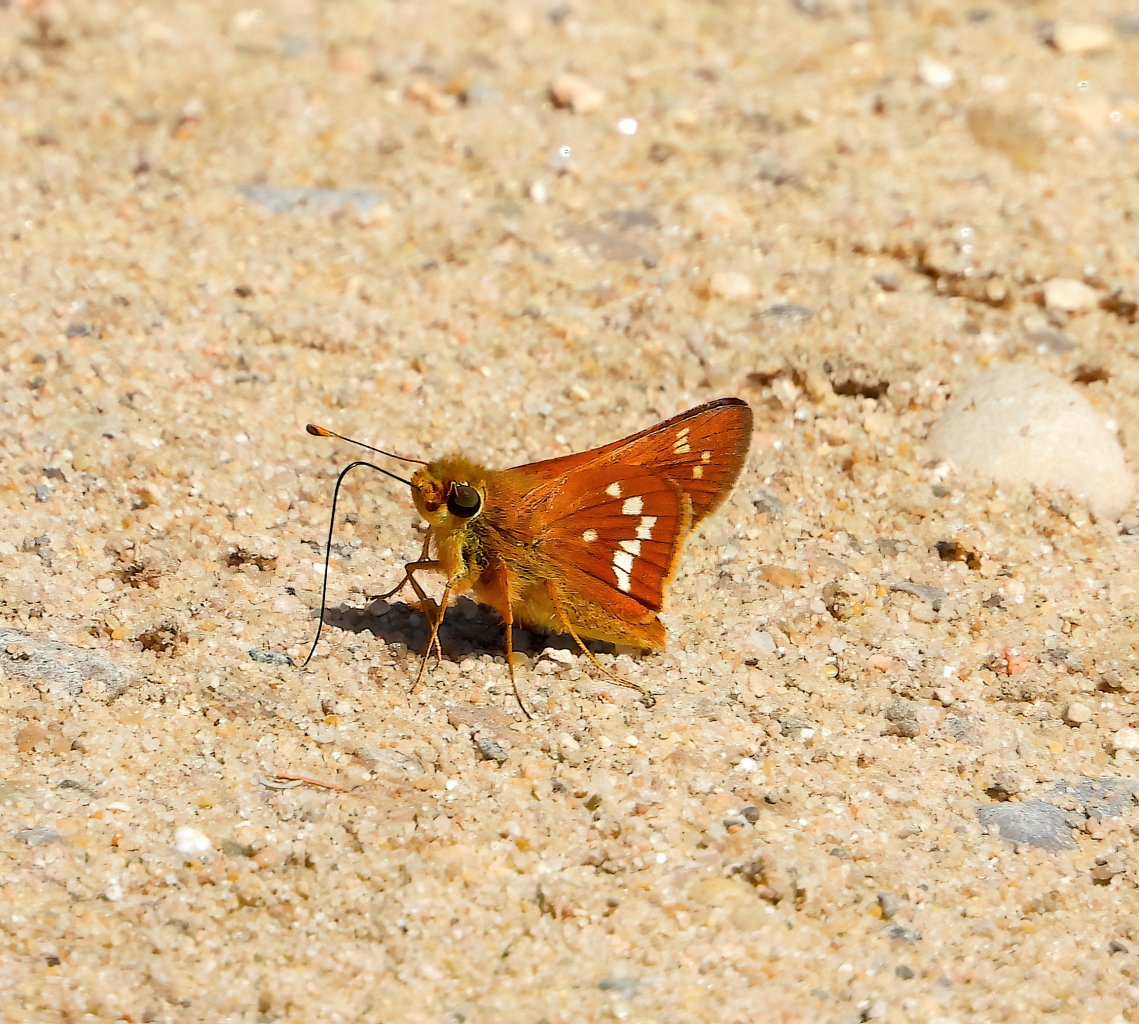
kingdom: Animalia
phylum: Arthropoda
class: Insecta
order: Lepidoptera
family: Hesperiidae
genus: Hesperia
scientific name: Hesperia leonardus
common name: Leonard's Skipper
